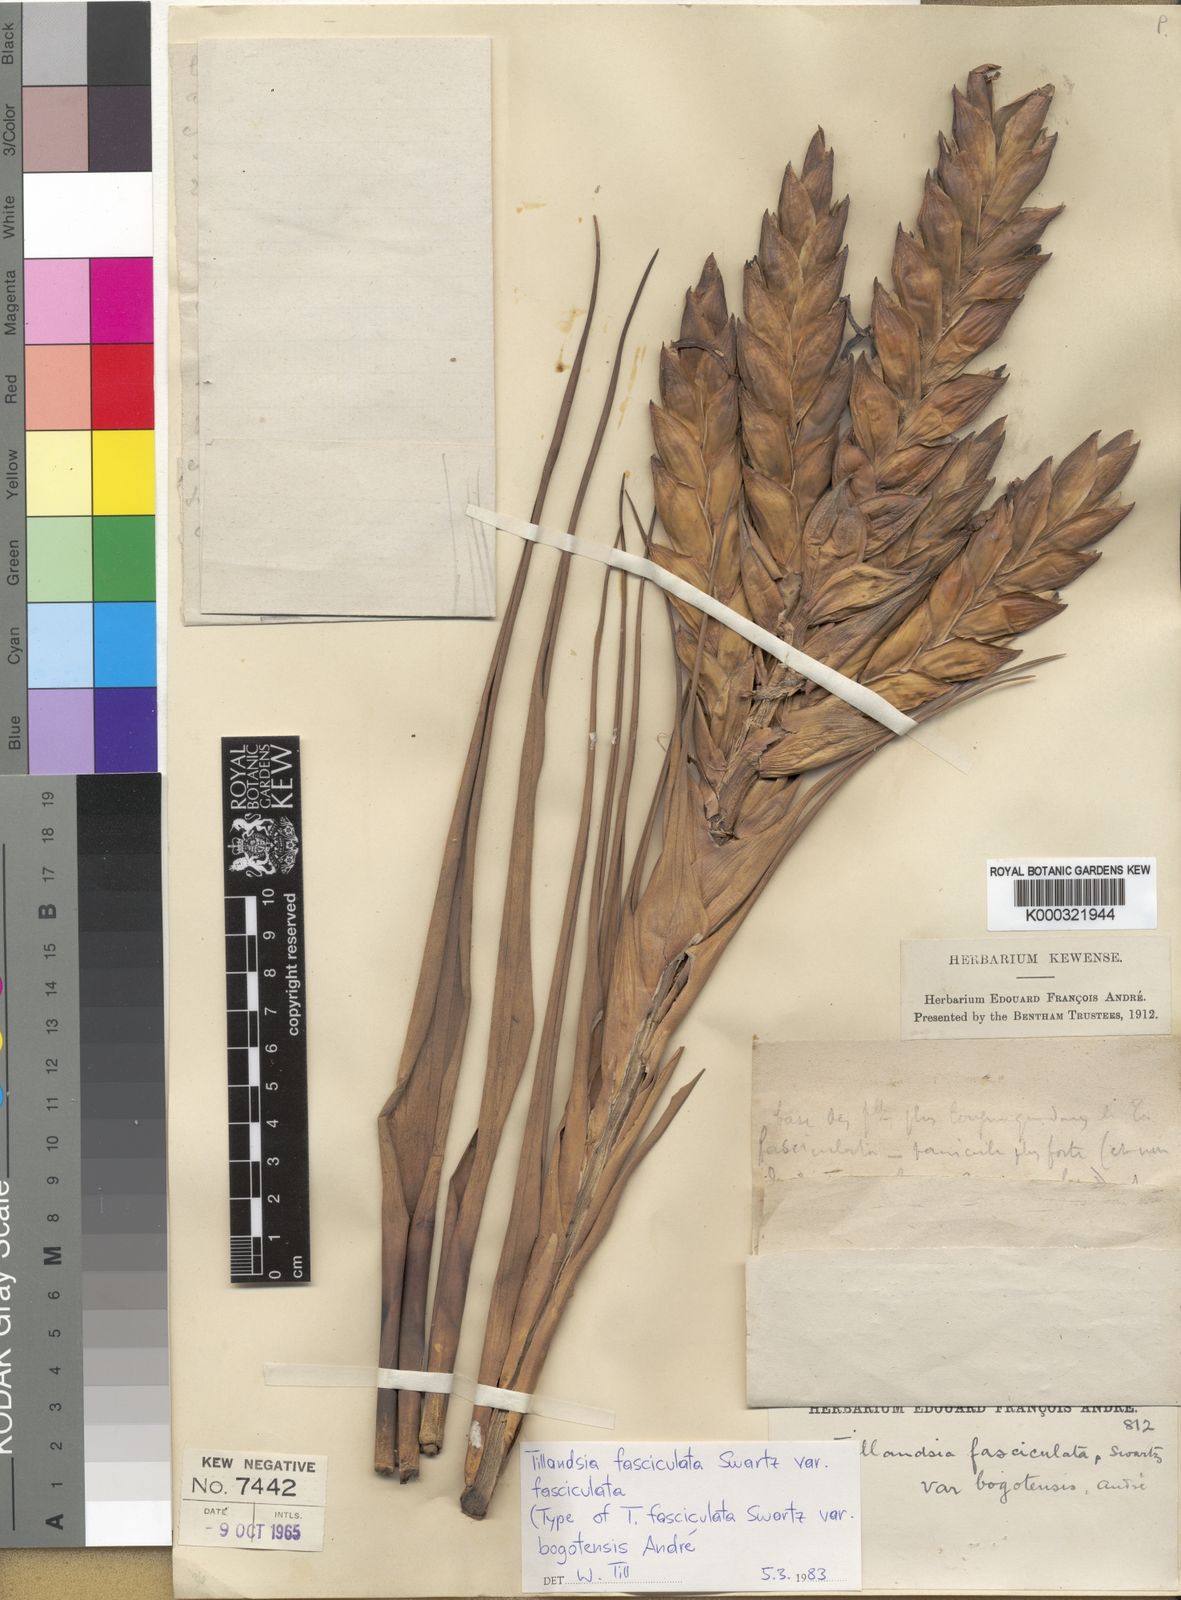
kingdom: Plantae
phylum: Tracheophyta
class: Liliopsida
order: Poales
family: Bromeliaceae
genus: Tillandsia
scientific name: Tillandsia fasciculata
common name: Giant airplant
